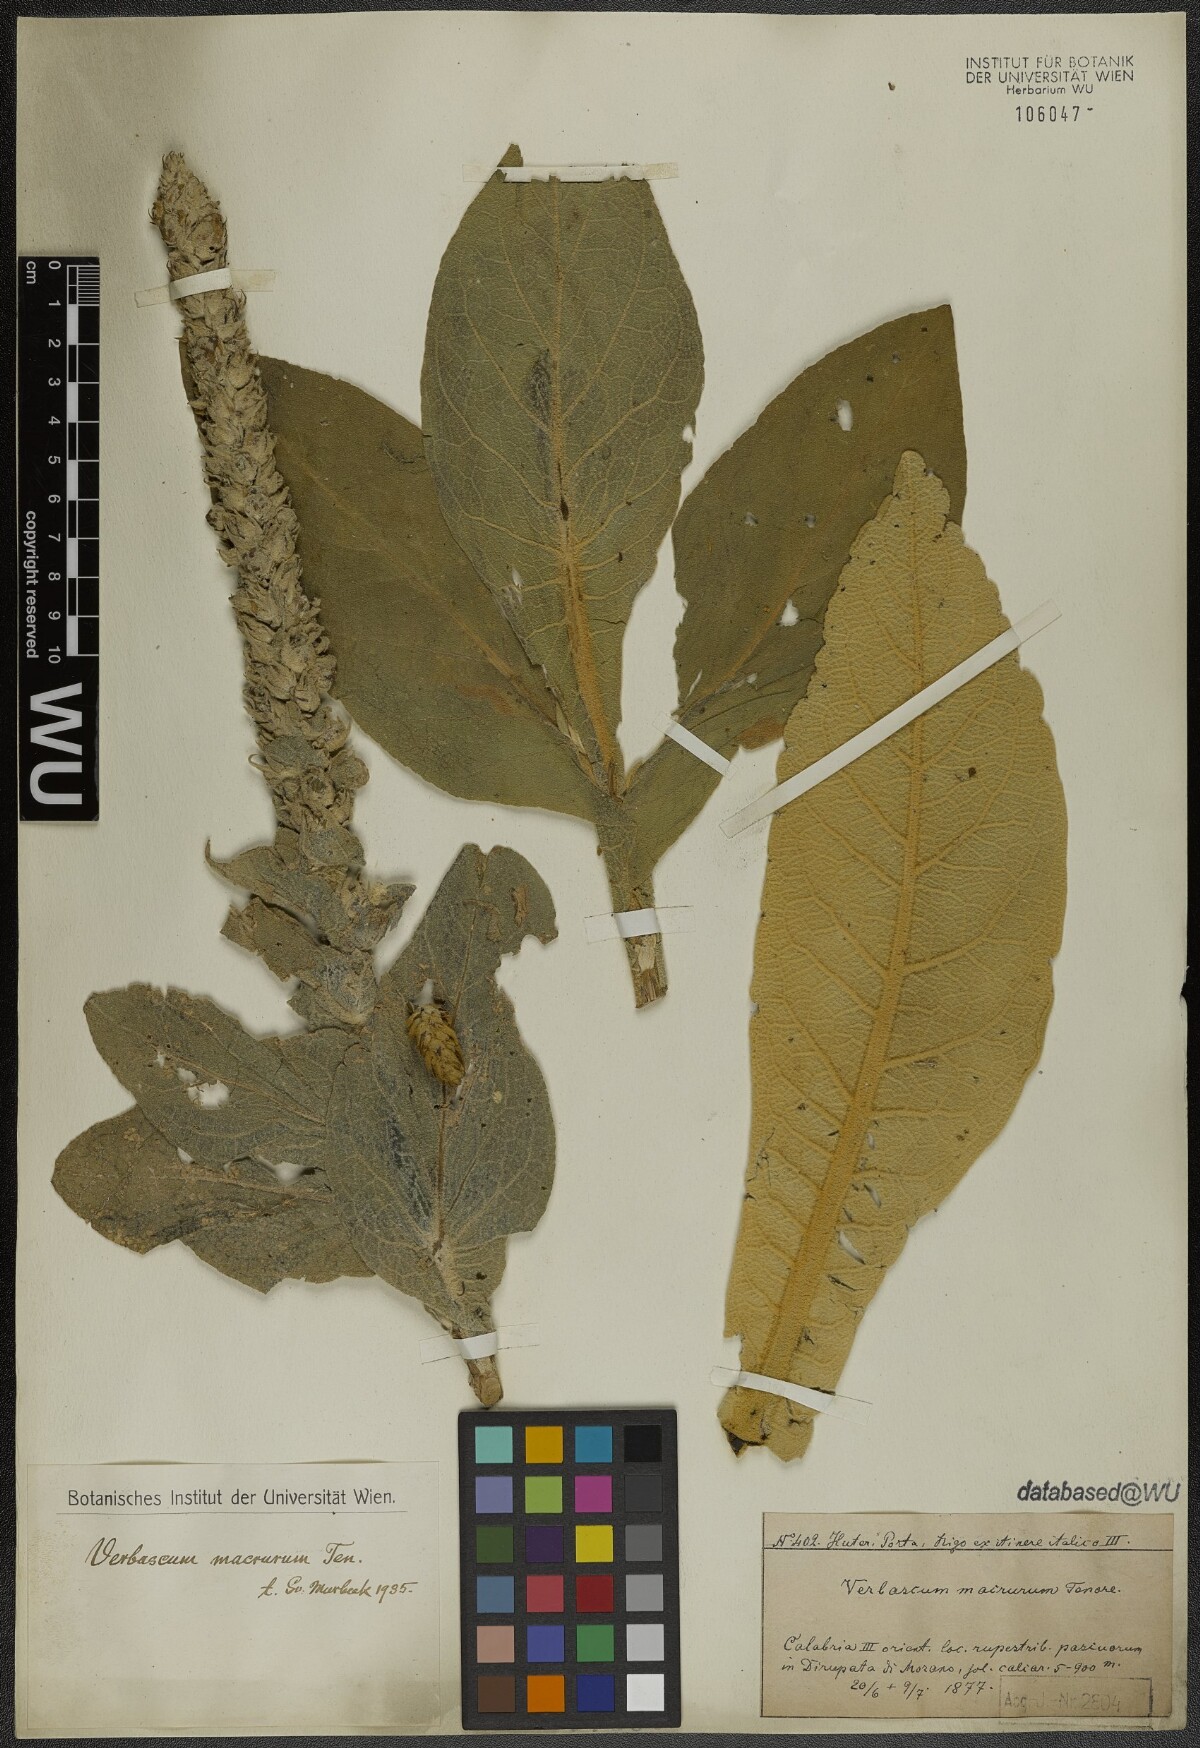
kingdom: Plantae
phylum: Tracheophyta
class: Magnoliopsida
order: Lamiales
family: Scrophulariaceae
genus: Verbascum
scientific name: Verbascum macrurum
